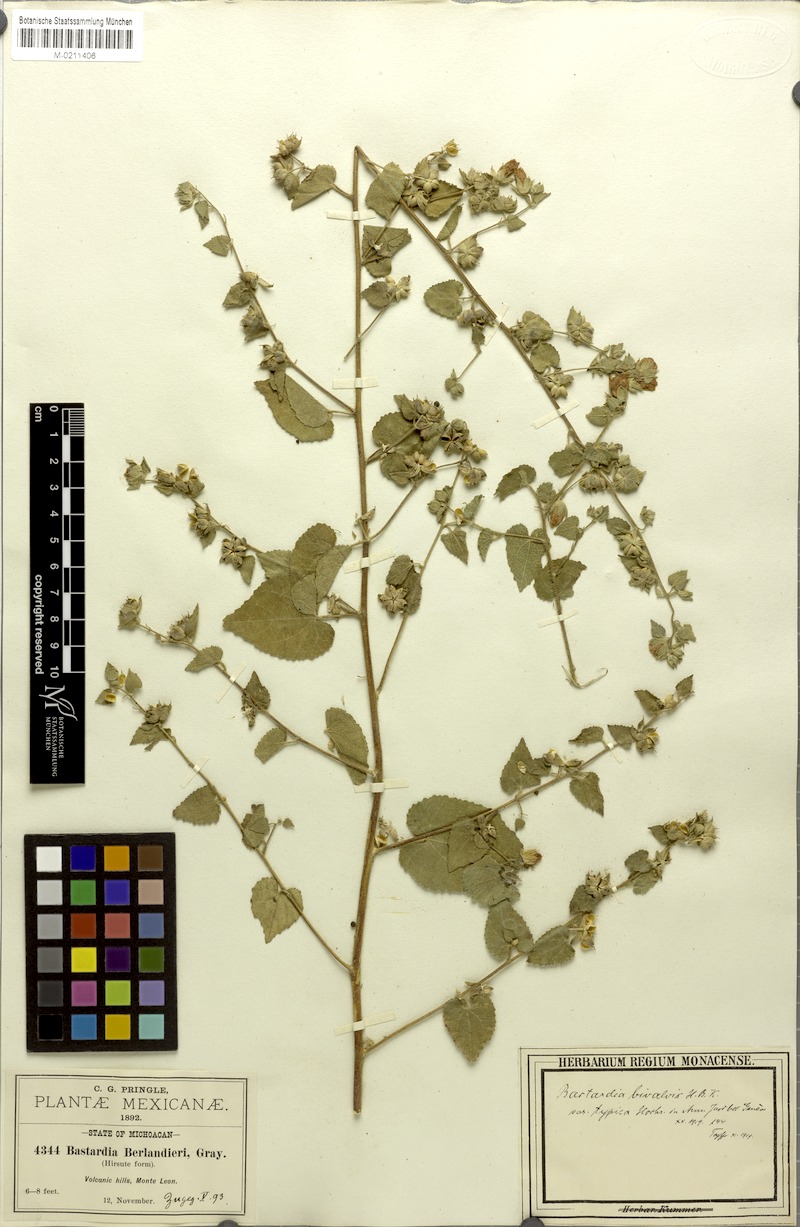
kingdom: Plantae
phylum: Tracheophyta
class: Magnoliopsida
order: Malvales
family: Malvaceae
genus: Abutilon
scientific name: Abutilon bivalve
